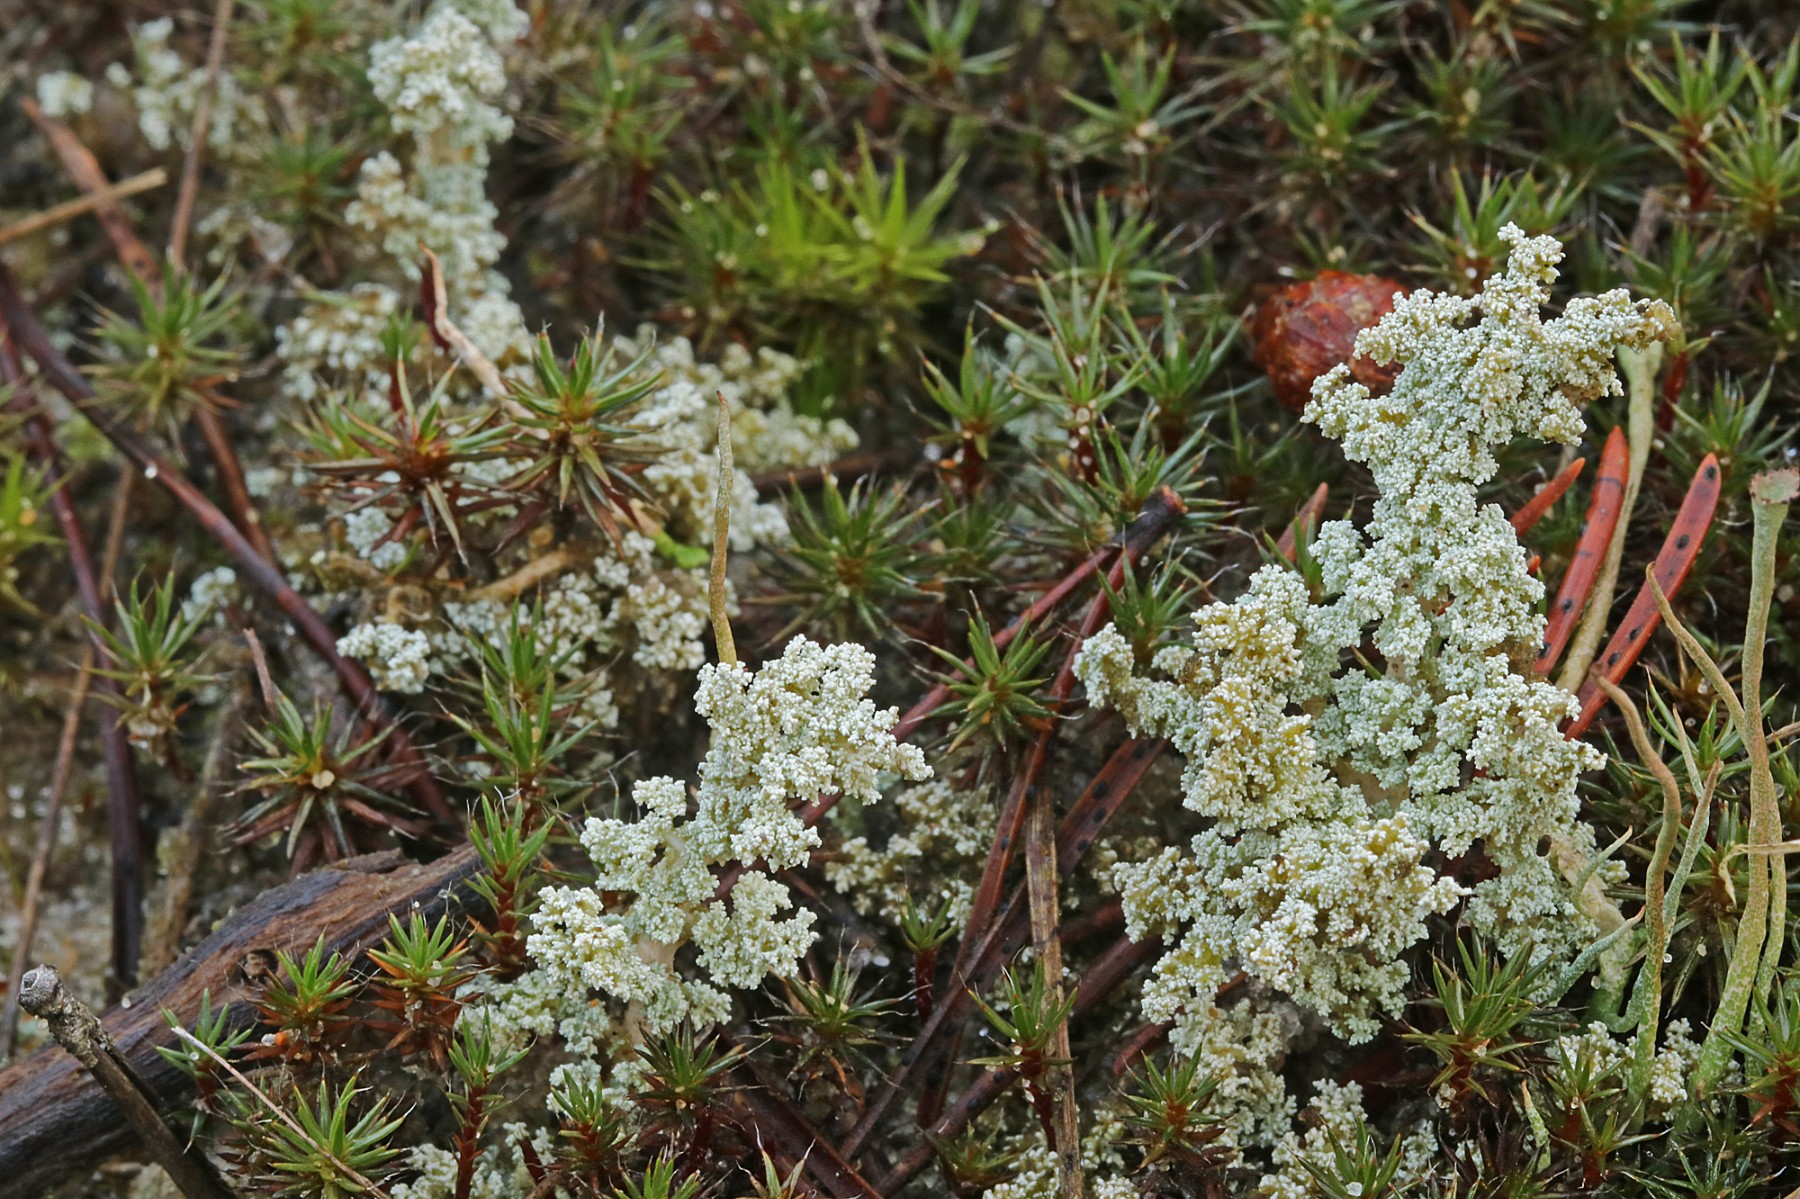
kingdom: Fungi
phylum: Ascomycota
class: Lecanoromycetes
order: Lecanorales
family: Stereocaulaceae
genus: Stereocaulon
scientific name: Stereocaulon saxatile
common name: klit-korallav
